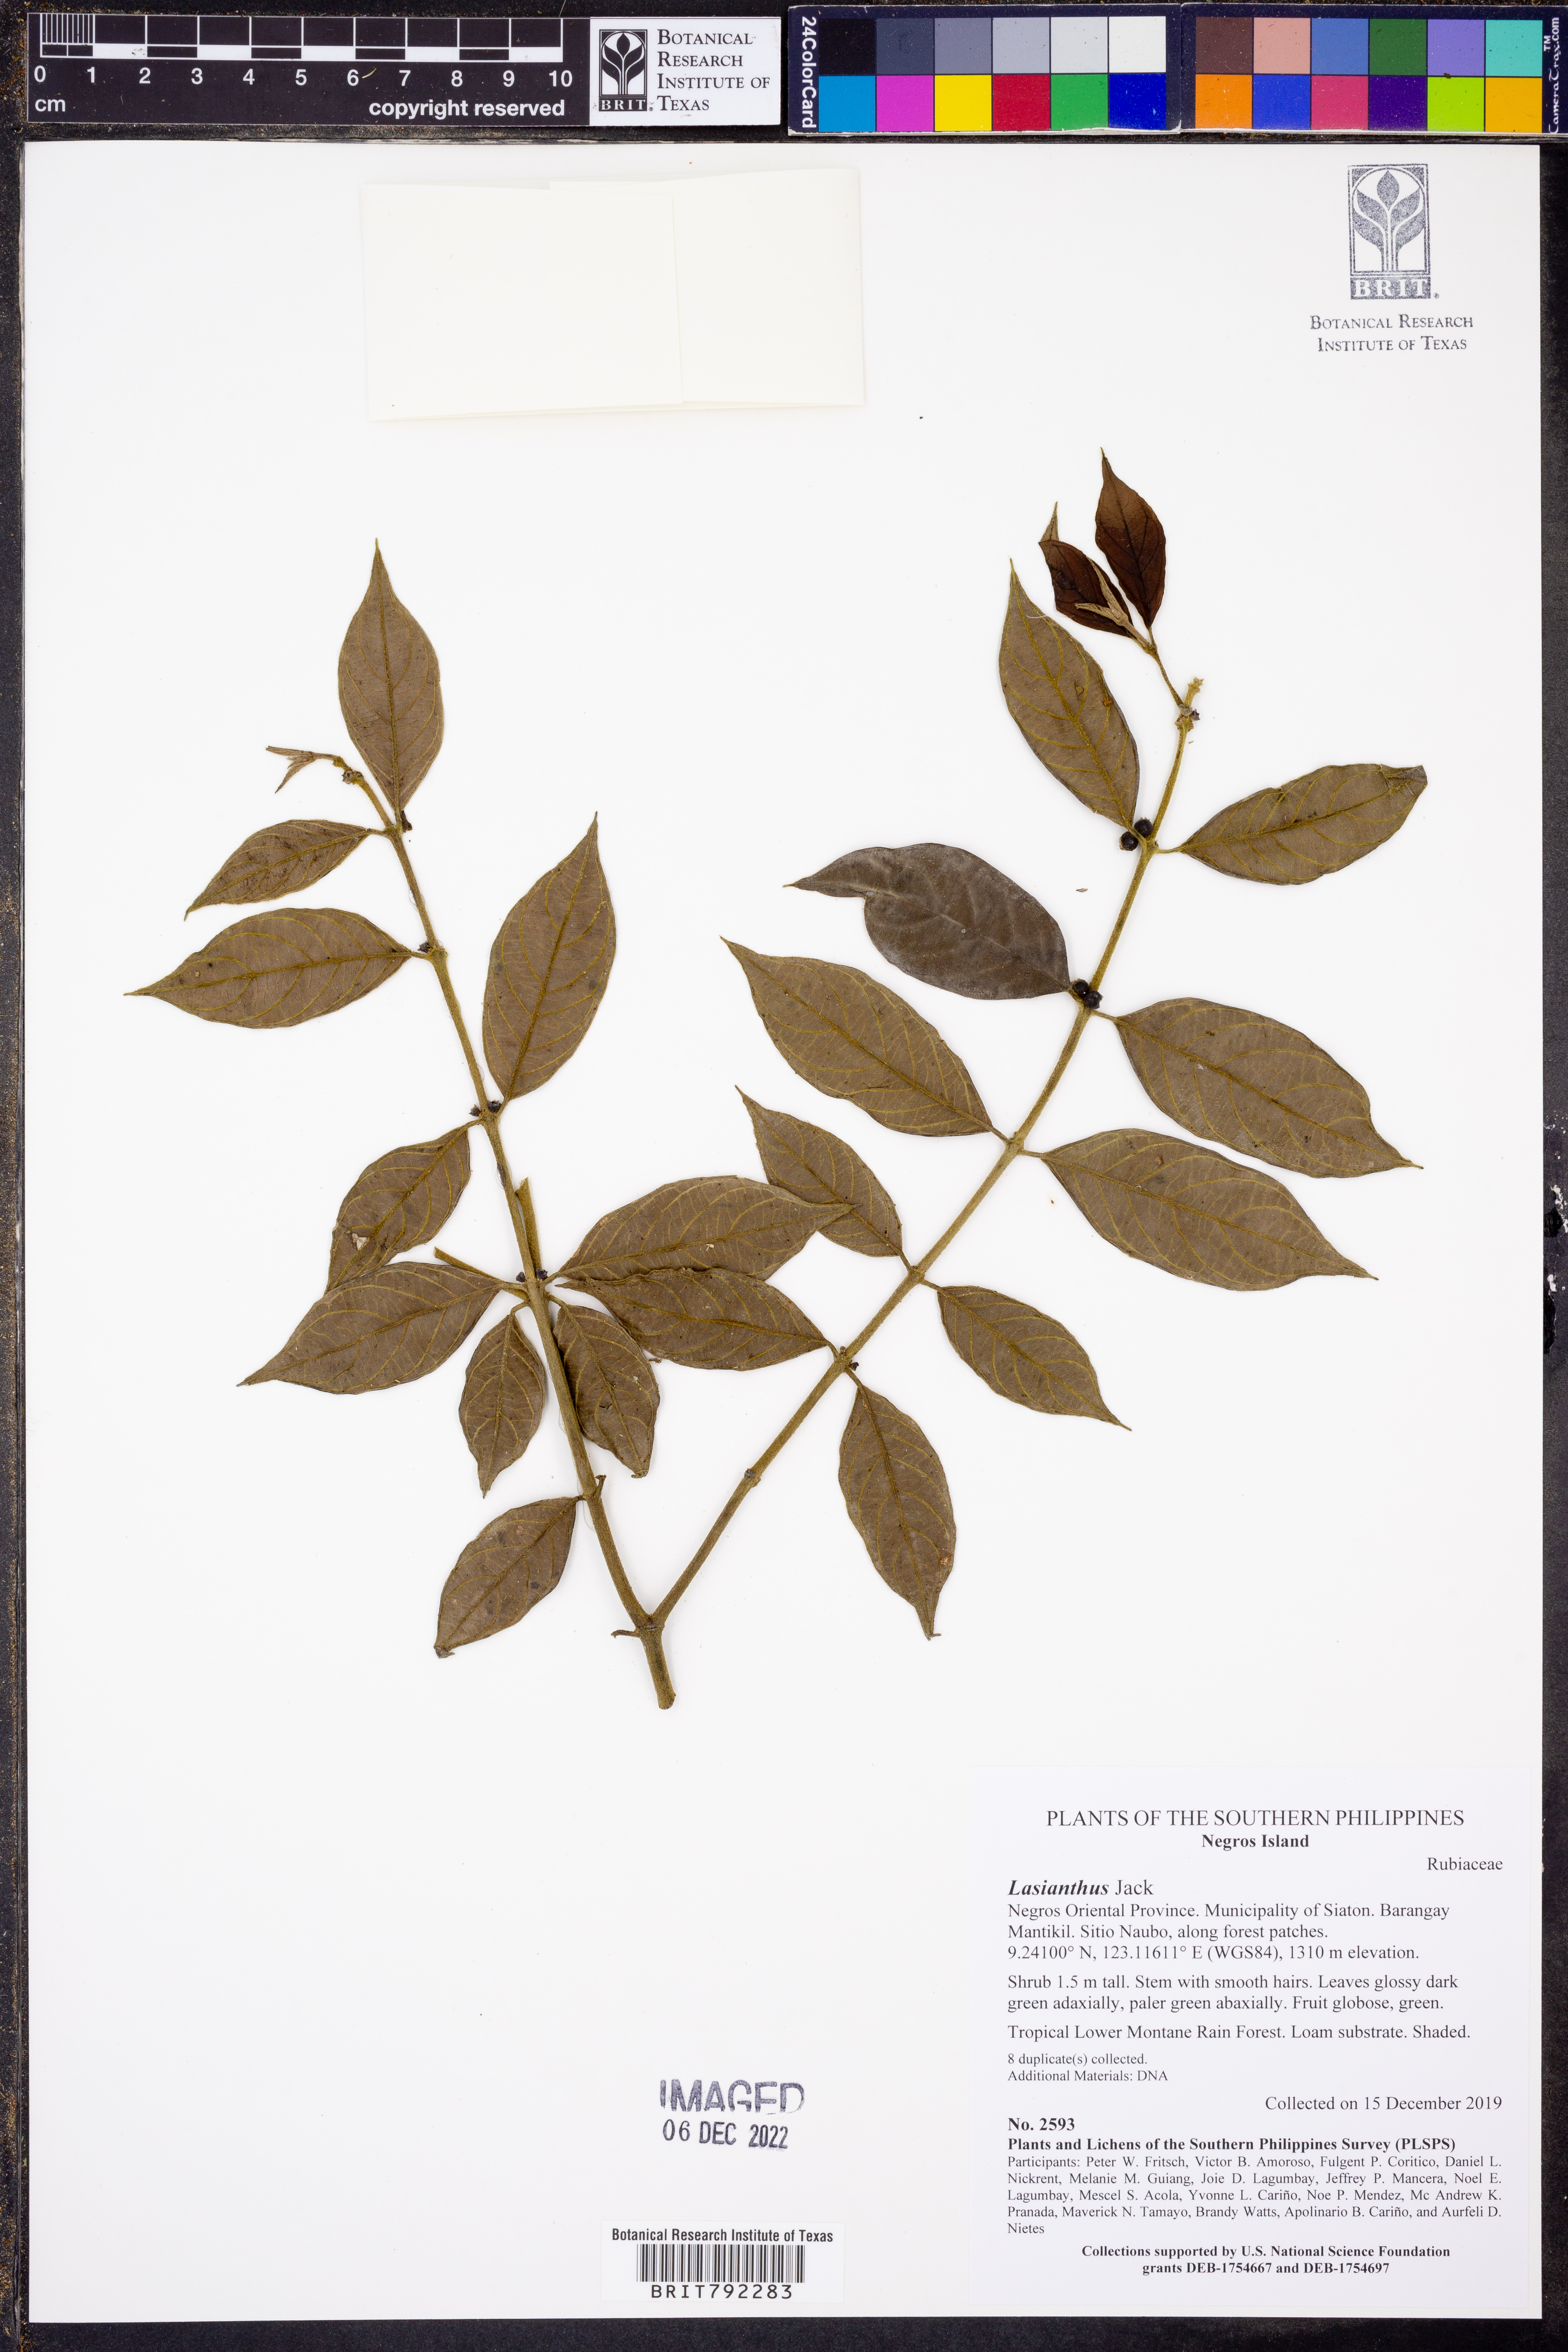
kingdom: Plantae
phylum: Tracheophyta
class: Magnoliopsida
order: Gentianales
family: Rubiaceae
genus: Lasianthus
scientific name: Lasianthus
